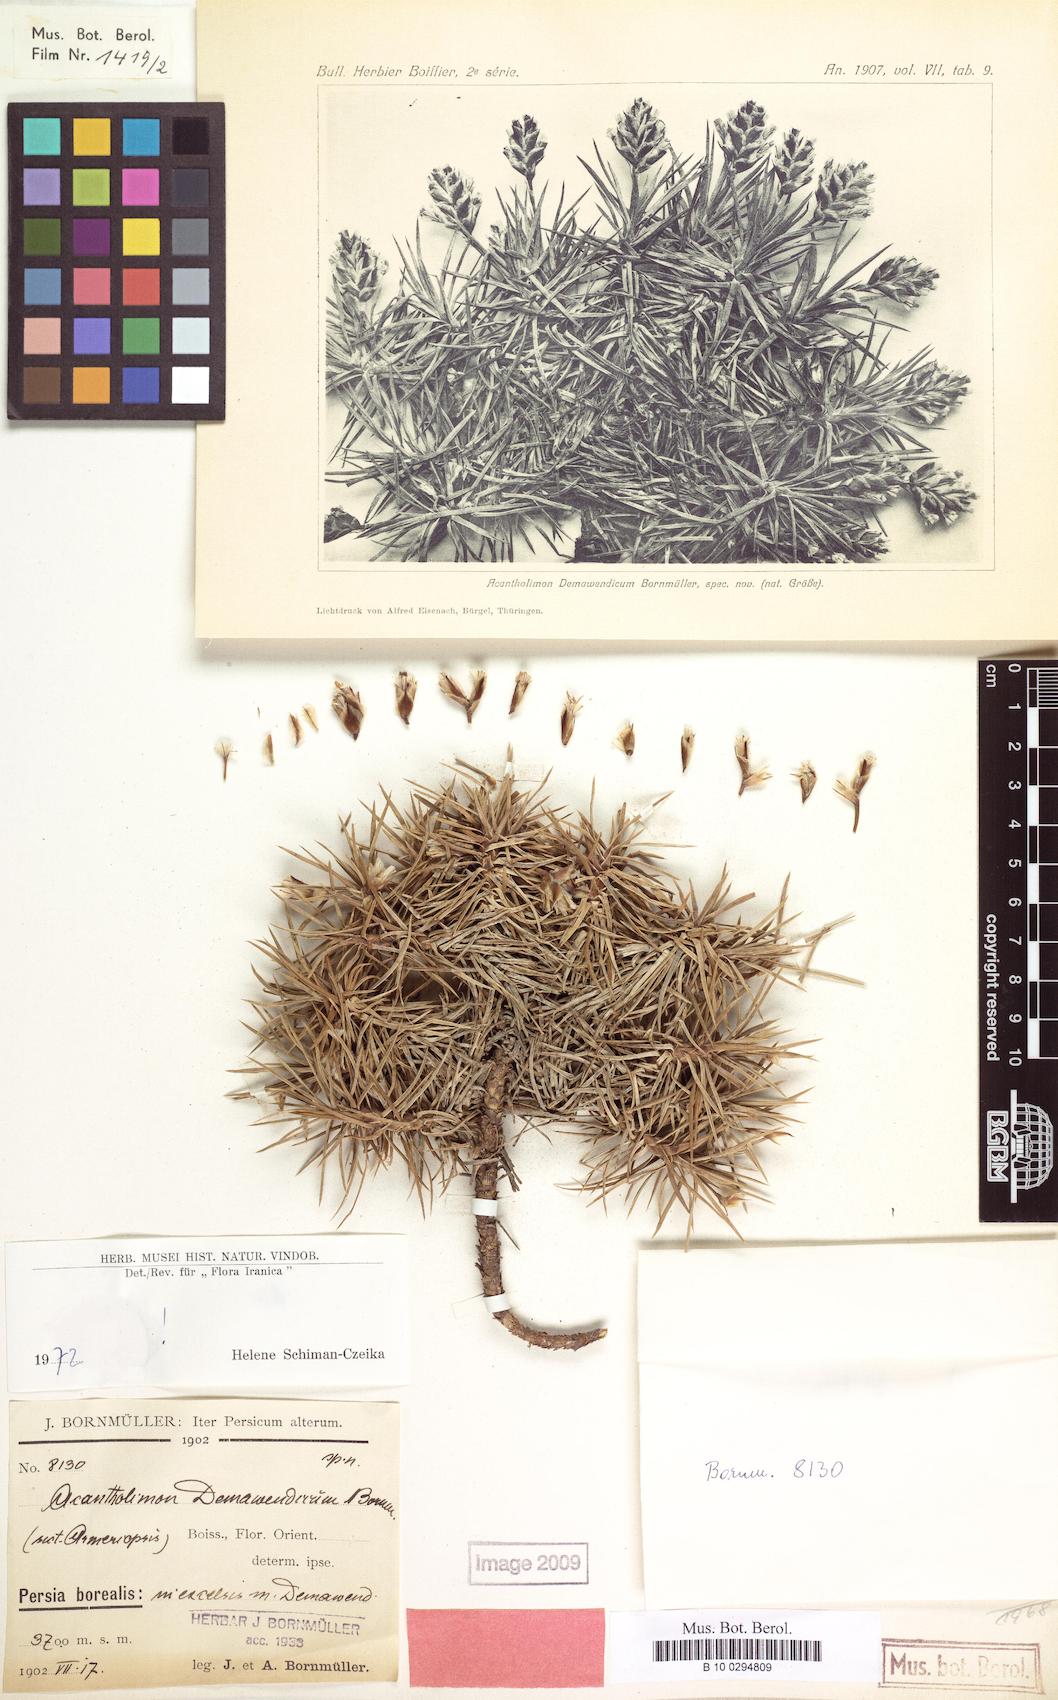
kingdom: Plantae
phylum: Tracheophyta
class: Magnoliopsida
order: Caryophyllales
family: Plumbaginaceae
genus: Acantholimon
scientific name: Acantholimon demavendicum
